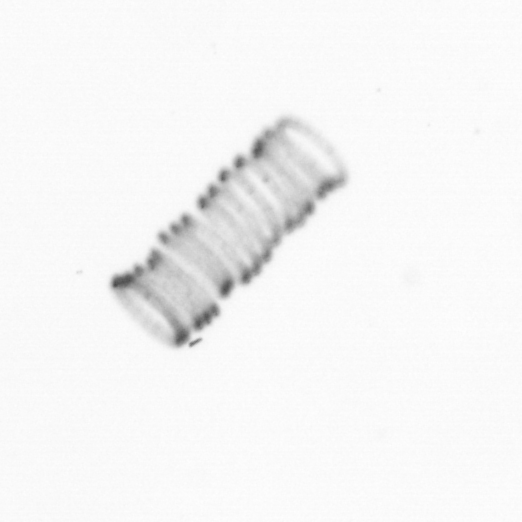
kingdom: Chromista
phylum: Ochrophyta
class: Bacillariophyceae
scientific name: Bacillariophyceae
